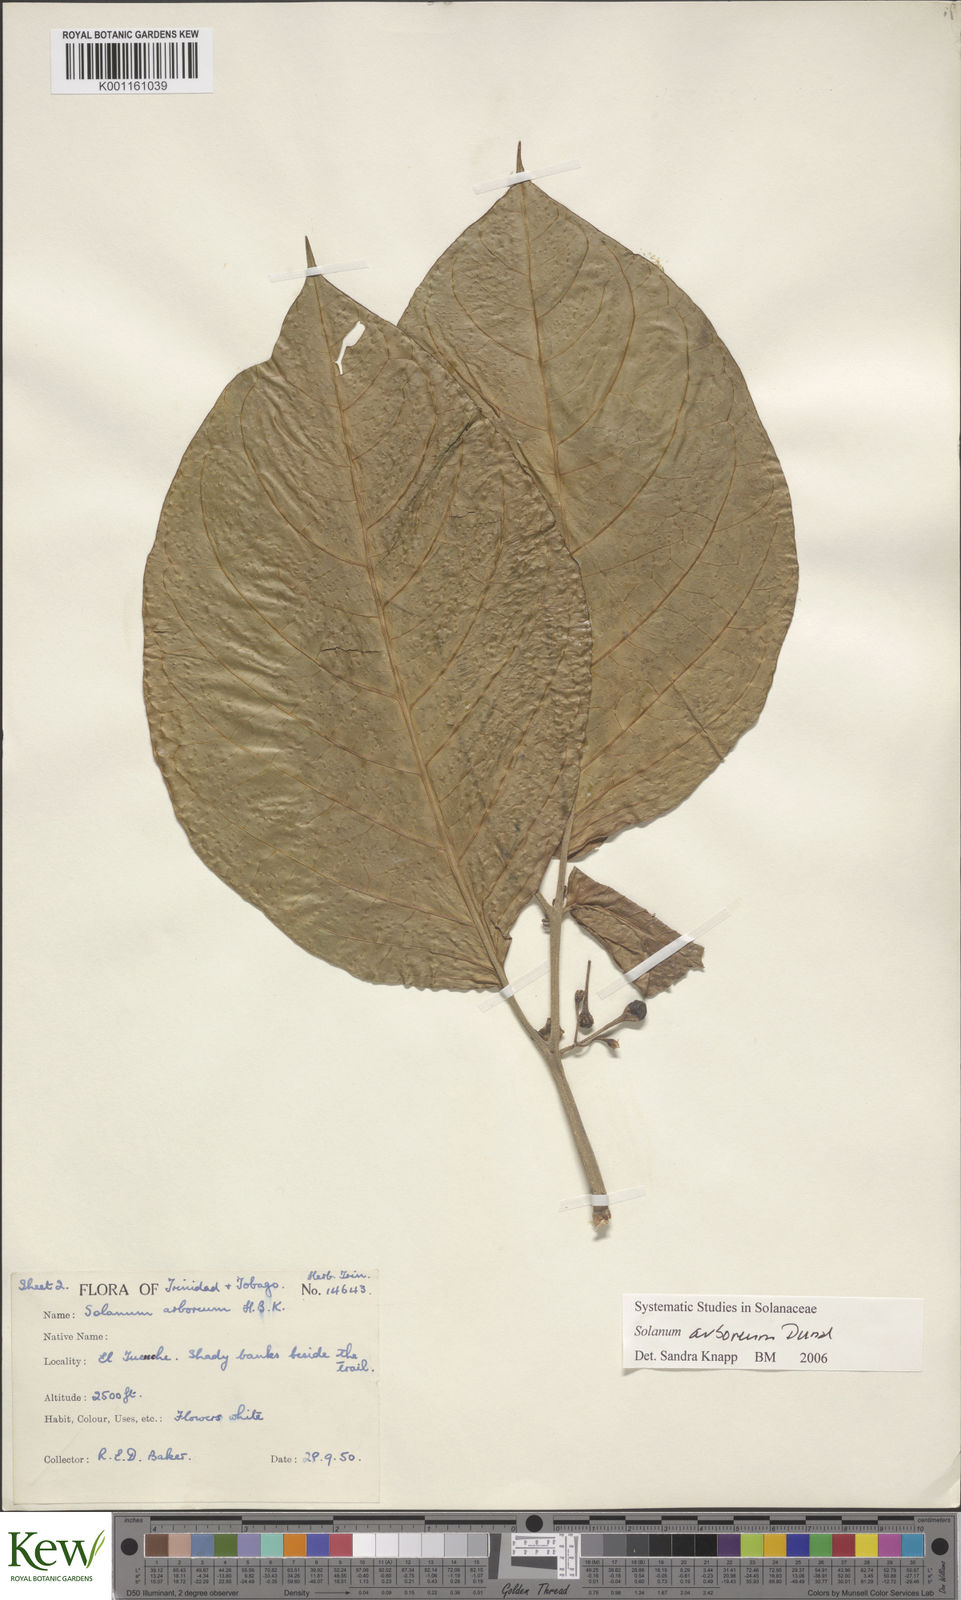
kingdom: Plantae
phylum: Tracheophyta
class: Magnoliopsida
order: Solanales
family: Solanaceae
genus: Solanum
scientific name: Solanum arboreum
